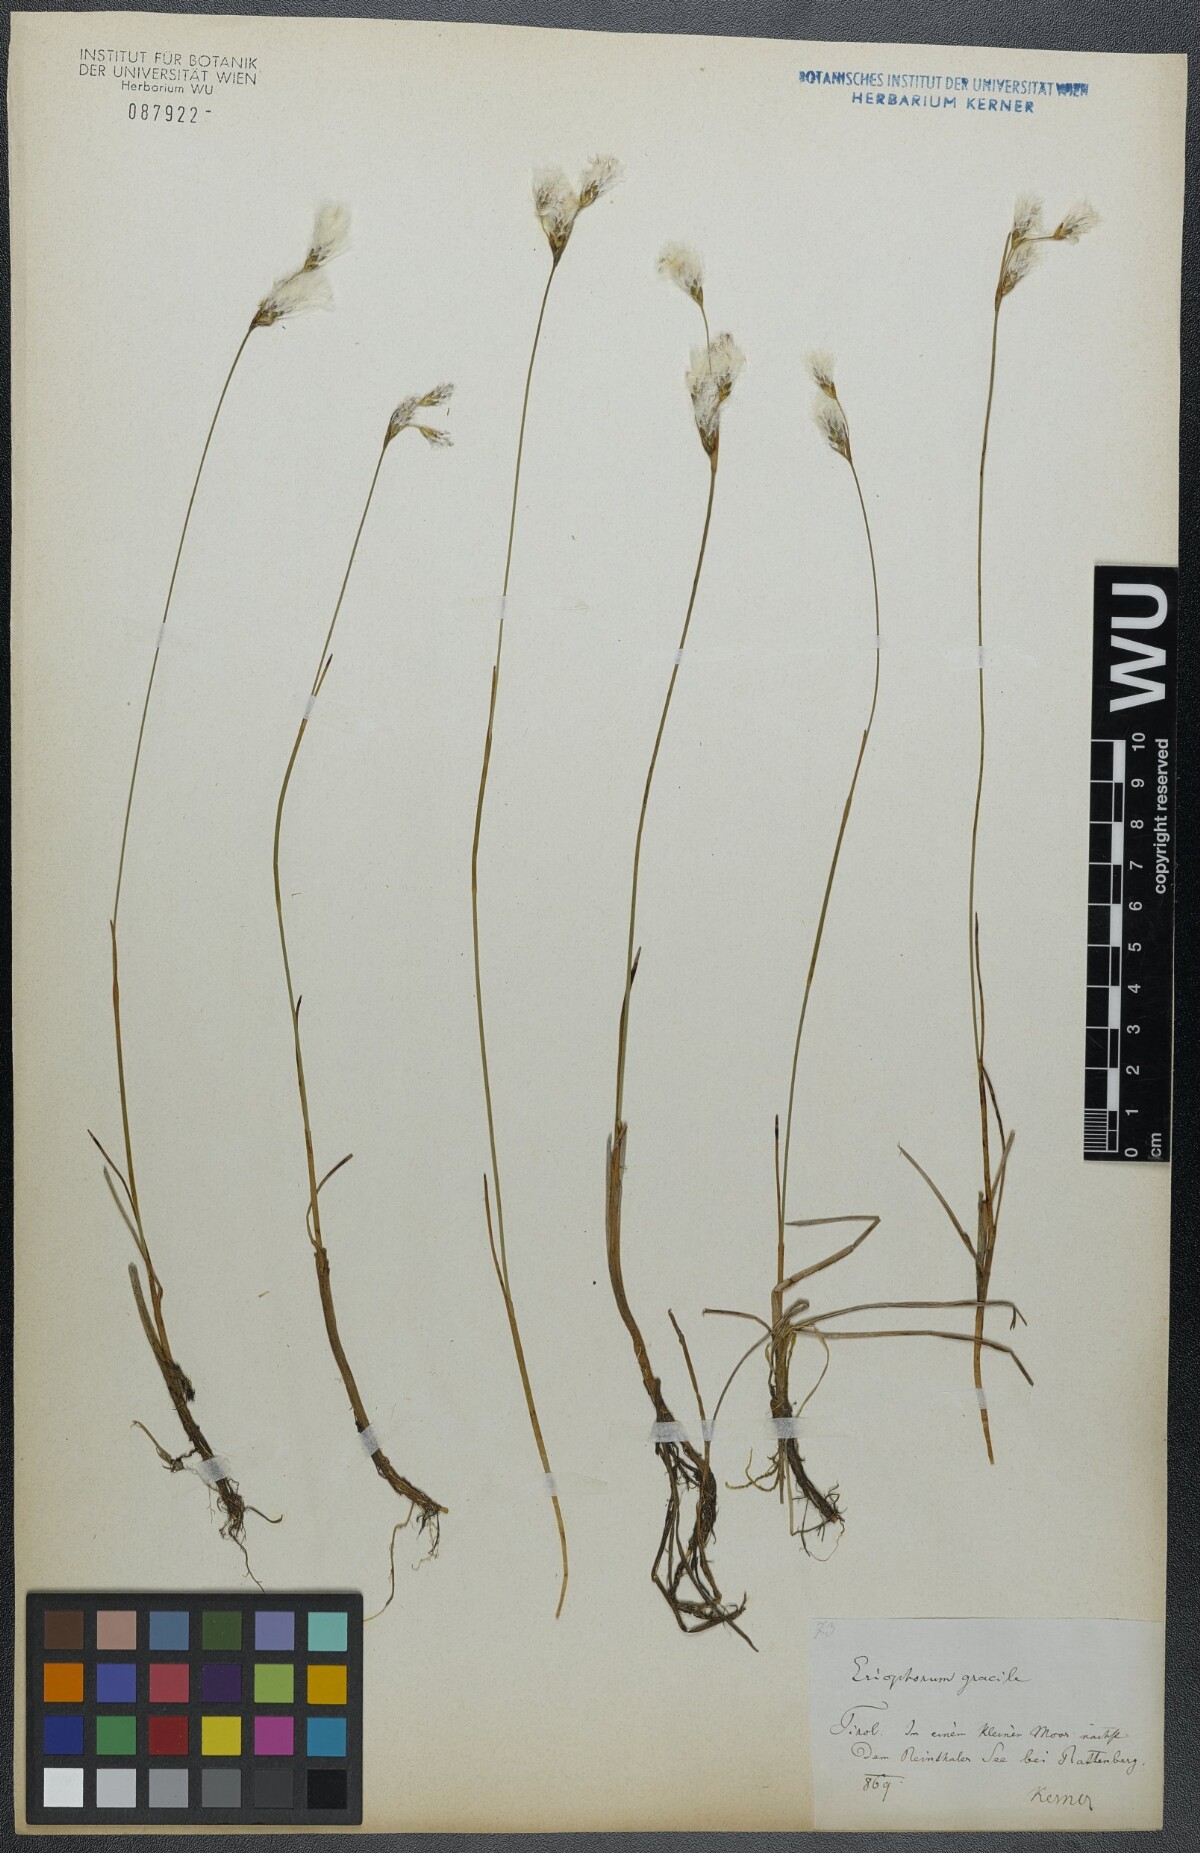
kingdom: Plantae
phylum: Tracheophyta
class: Liliopsida
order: Poales
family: Cyperaceae
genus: Eriophorum
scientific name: Eriophorum gracile
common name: Slender cottongrass
